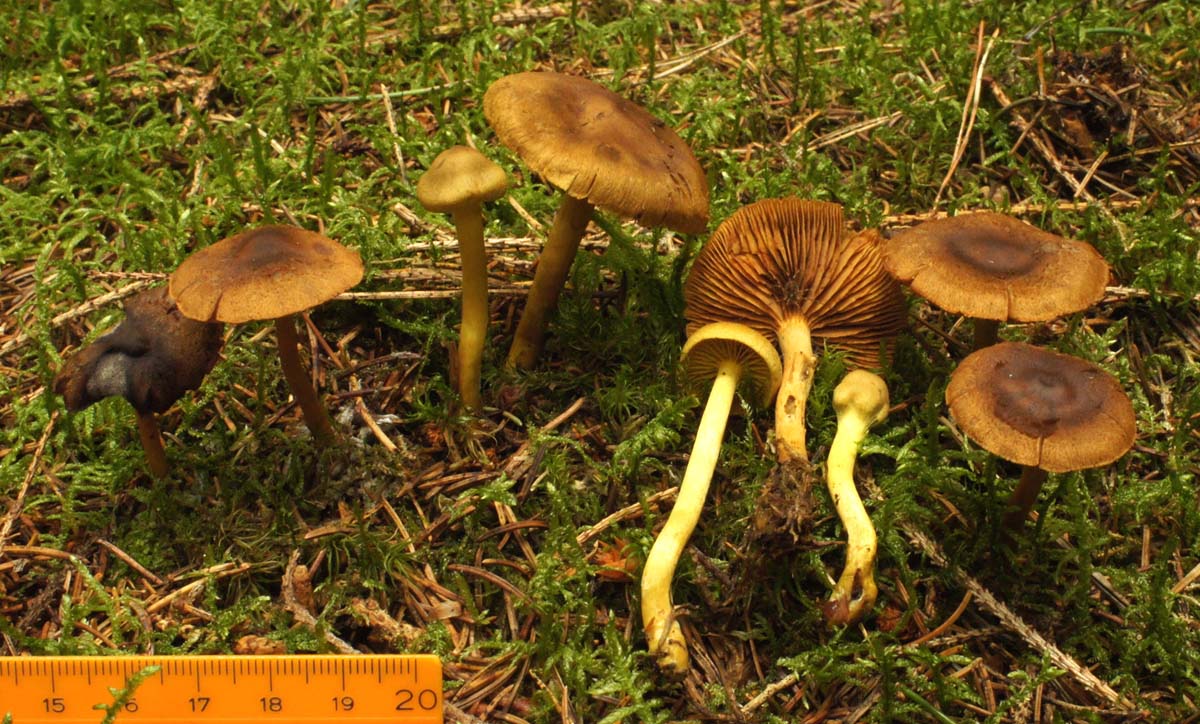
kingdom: Fungi
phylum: Basidiomycota
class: Agaricomycetes
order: Agaricales
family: Cortinariaceae
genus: Cortinarius
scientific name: Cortinarius
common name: gulbladet slørhat
